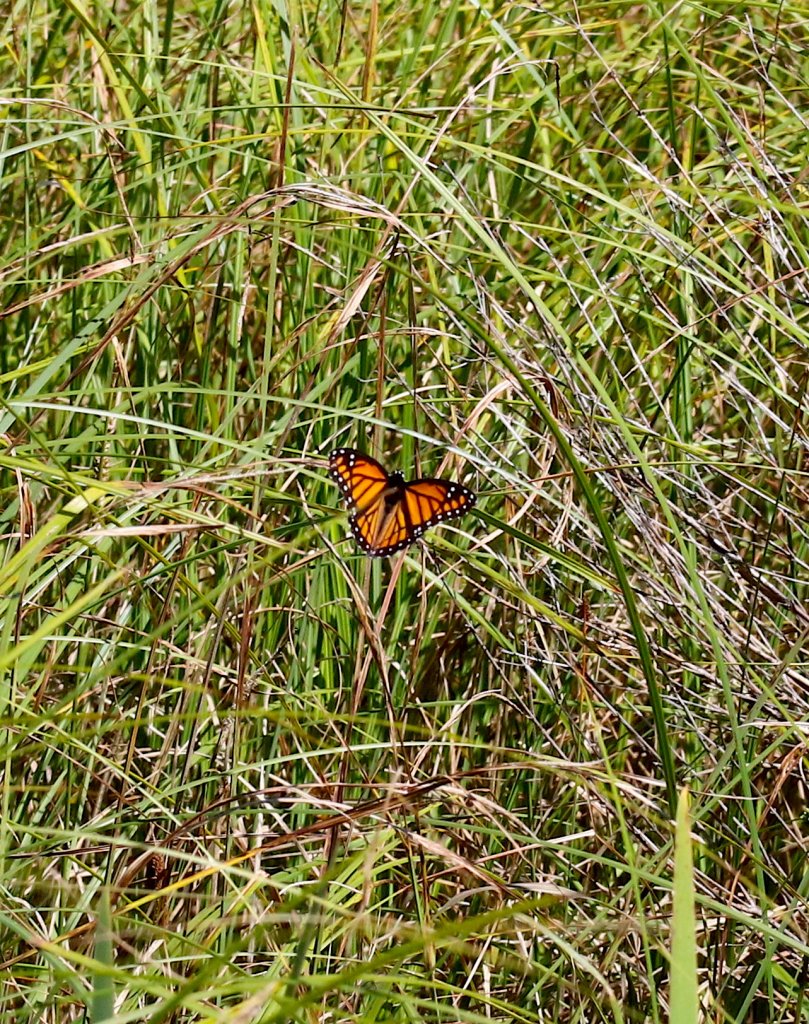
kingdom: Animalia
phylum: Arthropoda
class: Insecta
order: Lepidoptera
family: Nymphalidae
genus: Limenitis
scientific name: Limenitis archippus
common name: Viceroy
